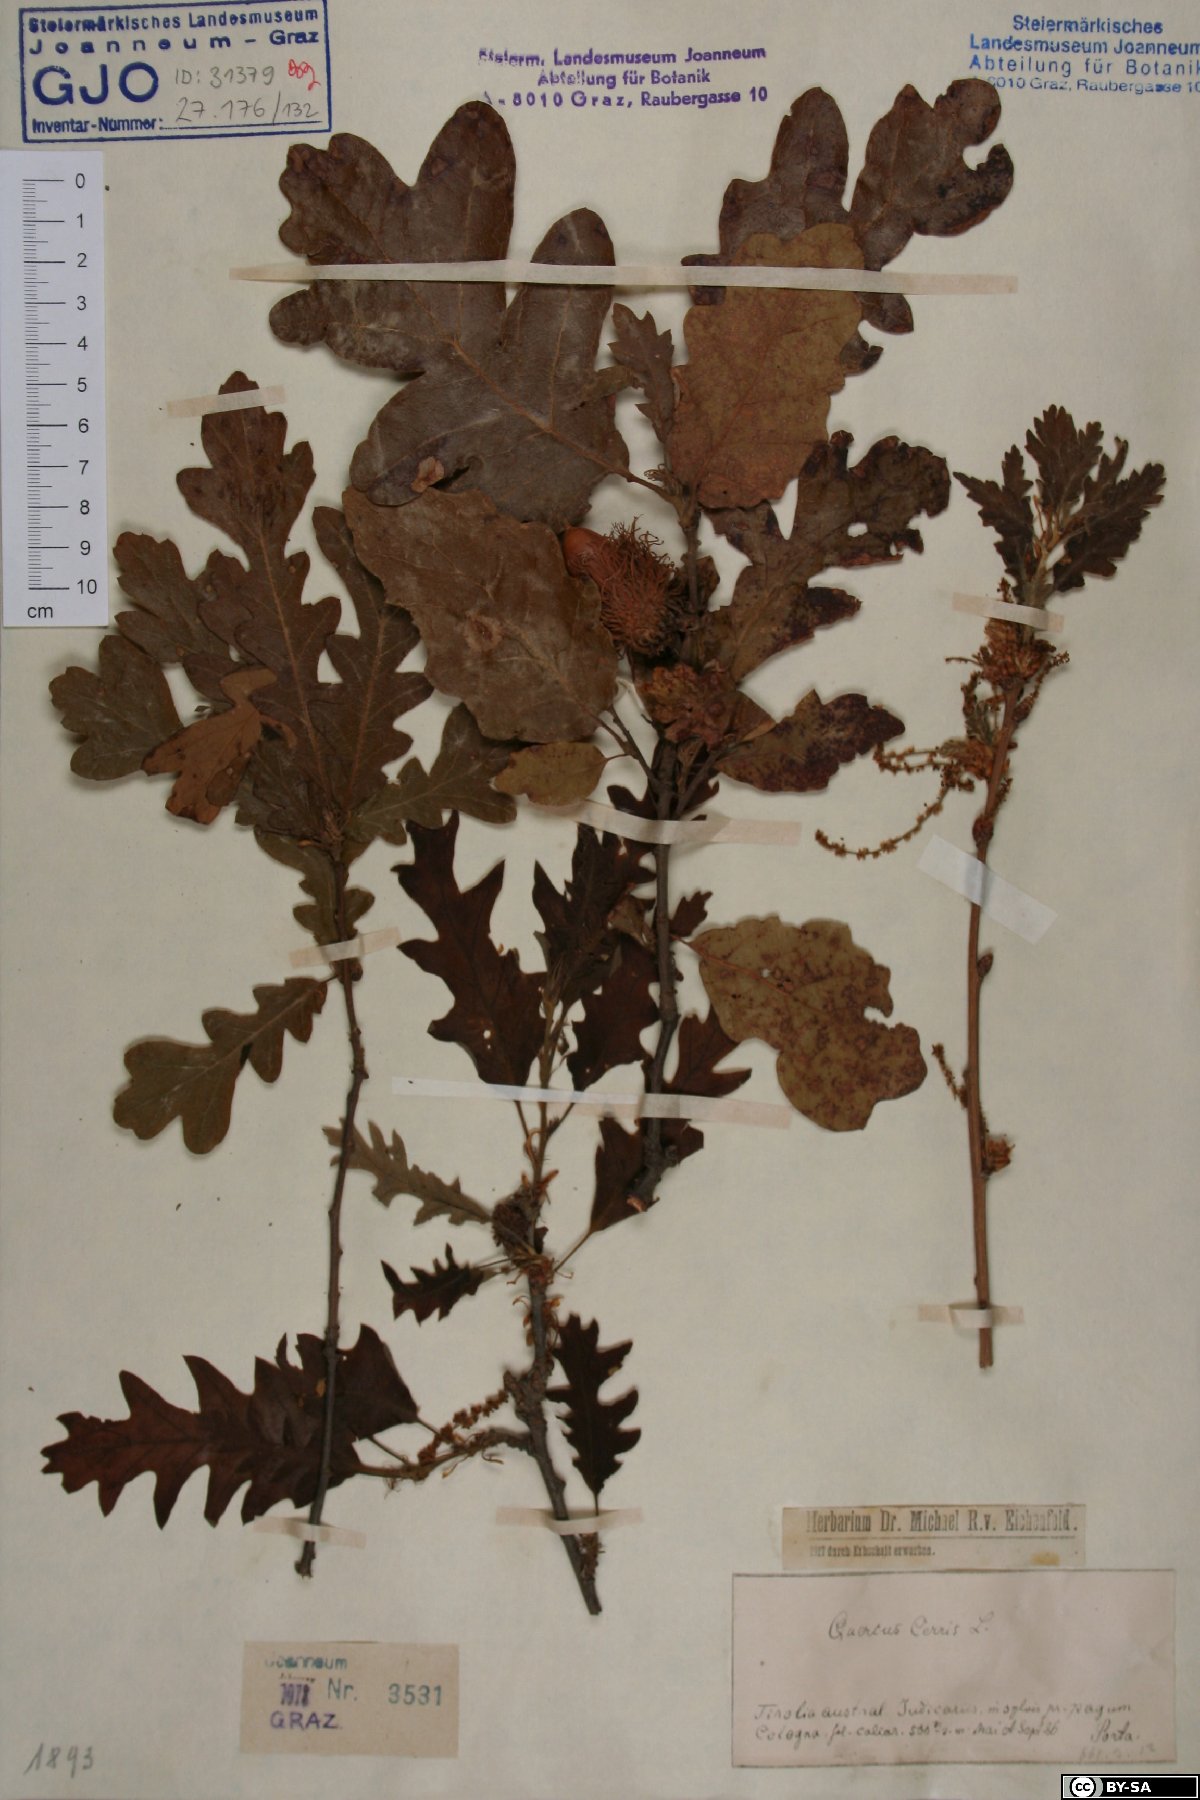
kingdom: Plantae
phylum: Tracheophyta
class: Magnoliopsida
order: Fagales
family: Fagaceae
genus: Quercus
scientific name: Quercus cerris
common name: Turkey oak
